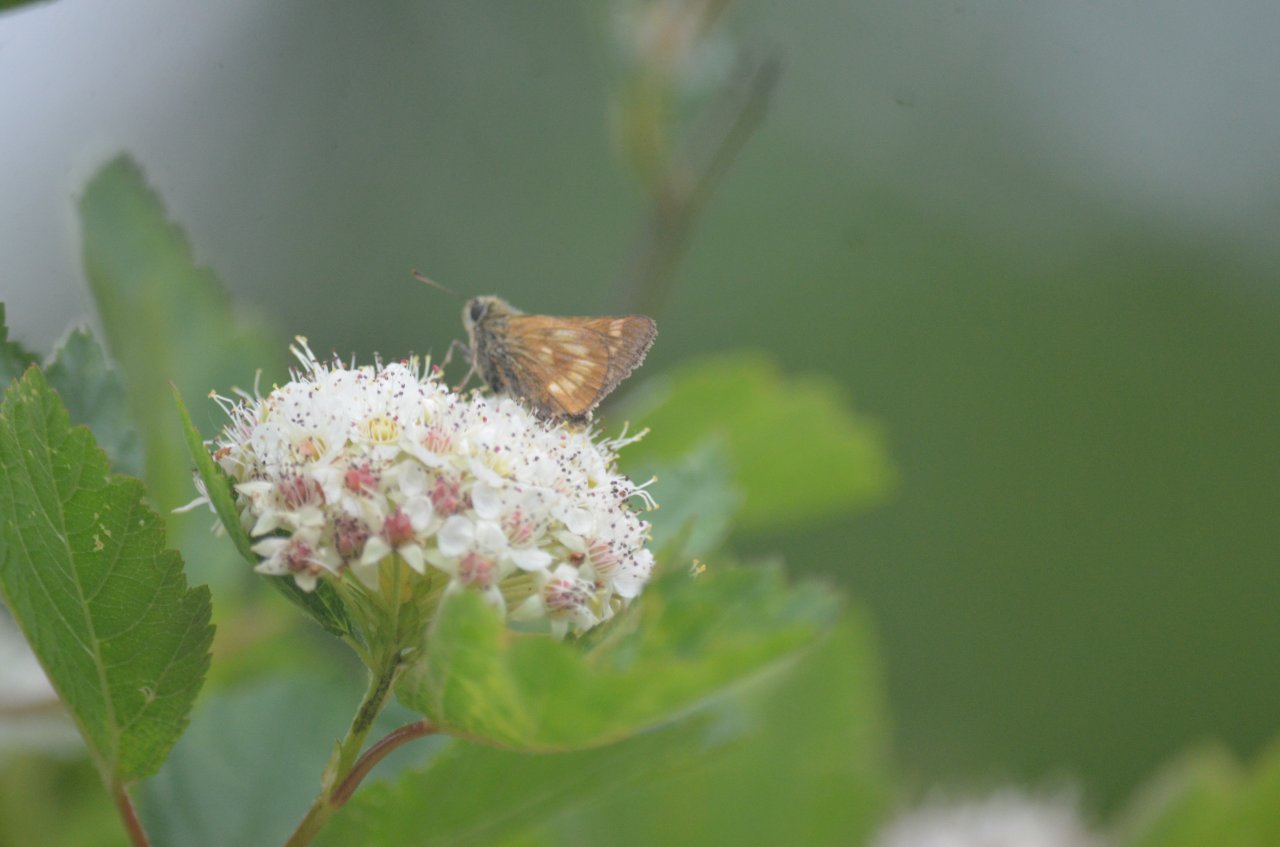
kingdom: Animalia
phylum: Arthropoda
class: Insecta
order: Lepidoptera
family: Hesperiidae
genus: Polites
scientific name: Polites
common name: Long Dash Skipper
